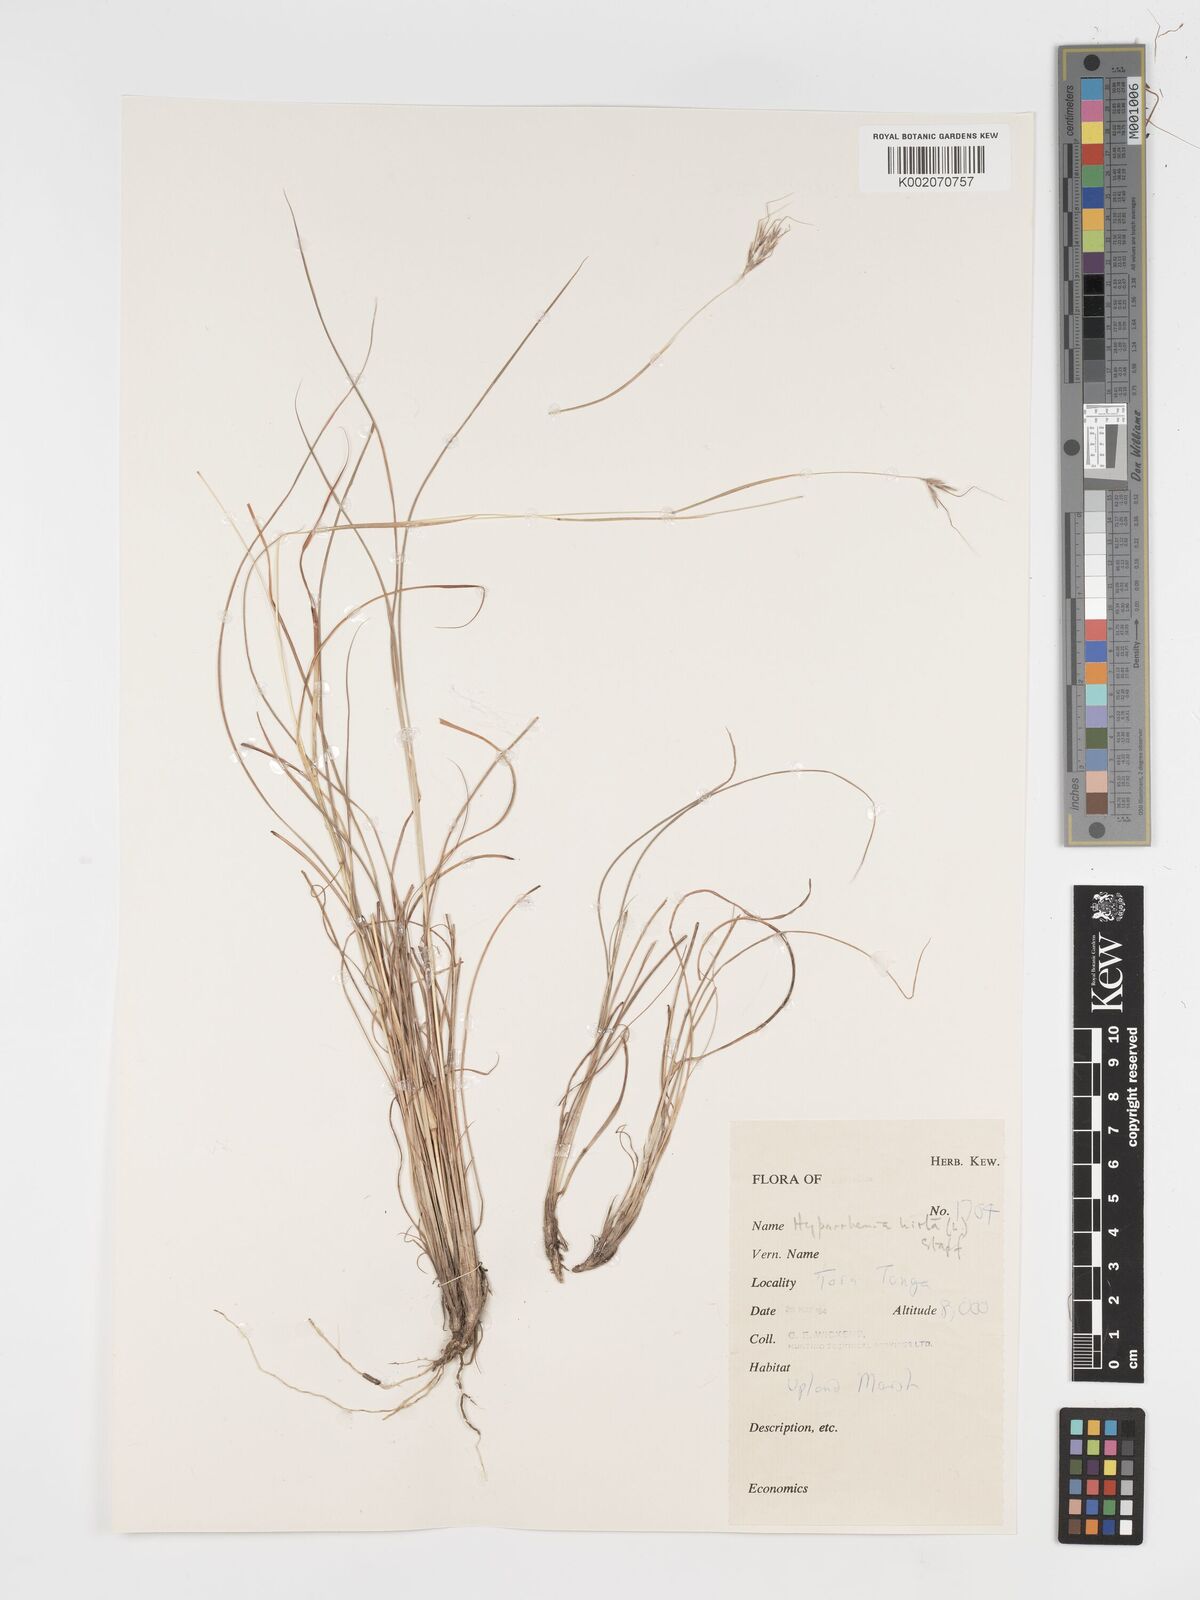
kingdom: Plantae
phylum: Tracheophyta
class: Liliopsida
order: Poales
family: Poaceae
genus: Hyparrhenia
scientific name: Hyparrhenia hirta
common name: Thatching grass
